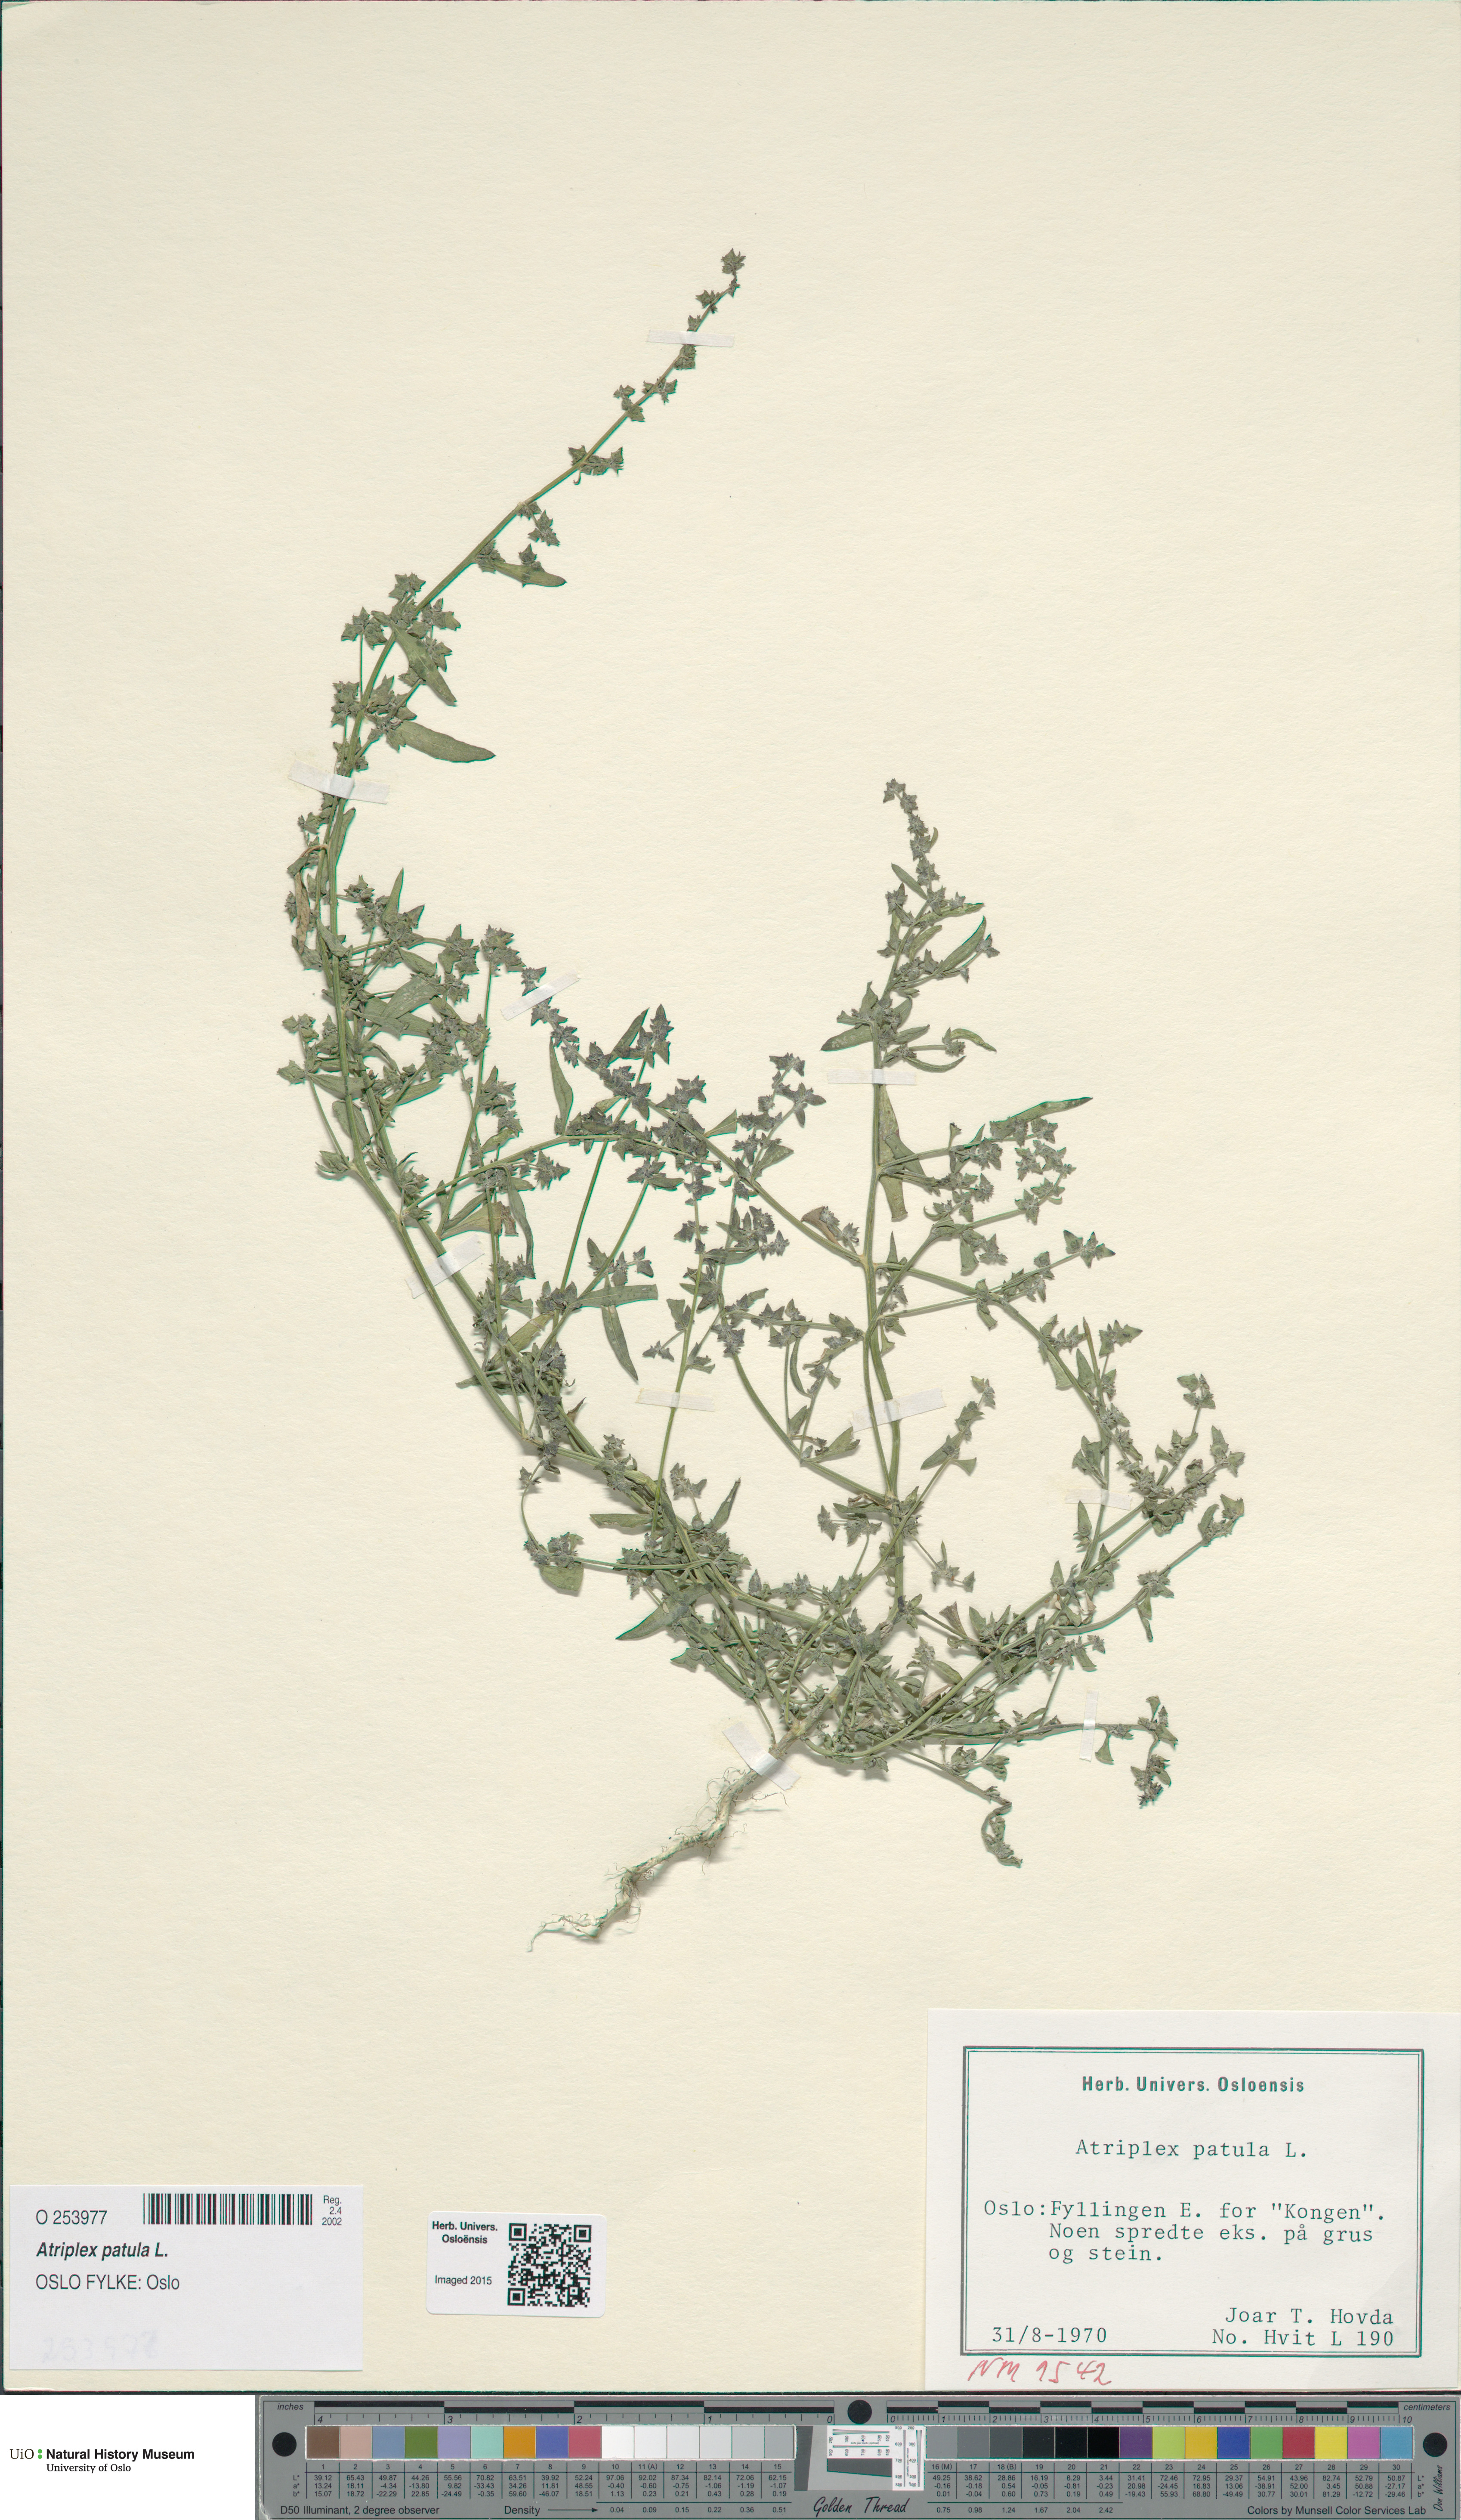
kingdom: Plantae
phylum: Tracheophyta
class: Magnoliopsida
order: Caryophyllales
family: Amaranthaceae
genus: Atriplex
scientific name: Atriplex patula
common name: Common orache
